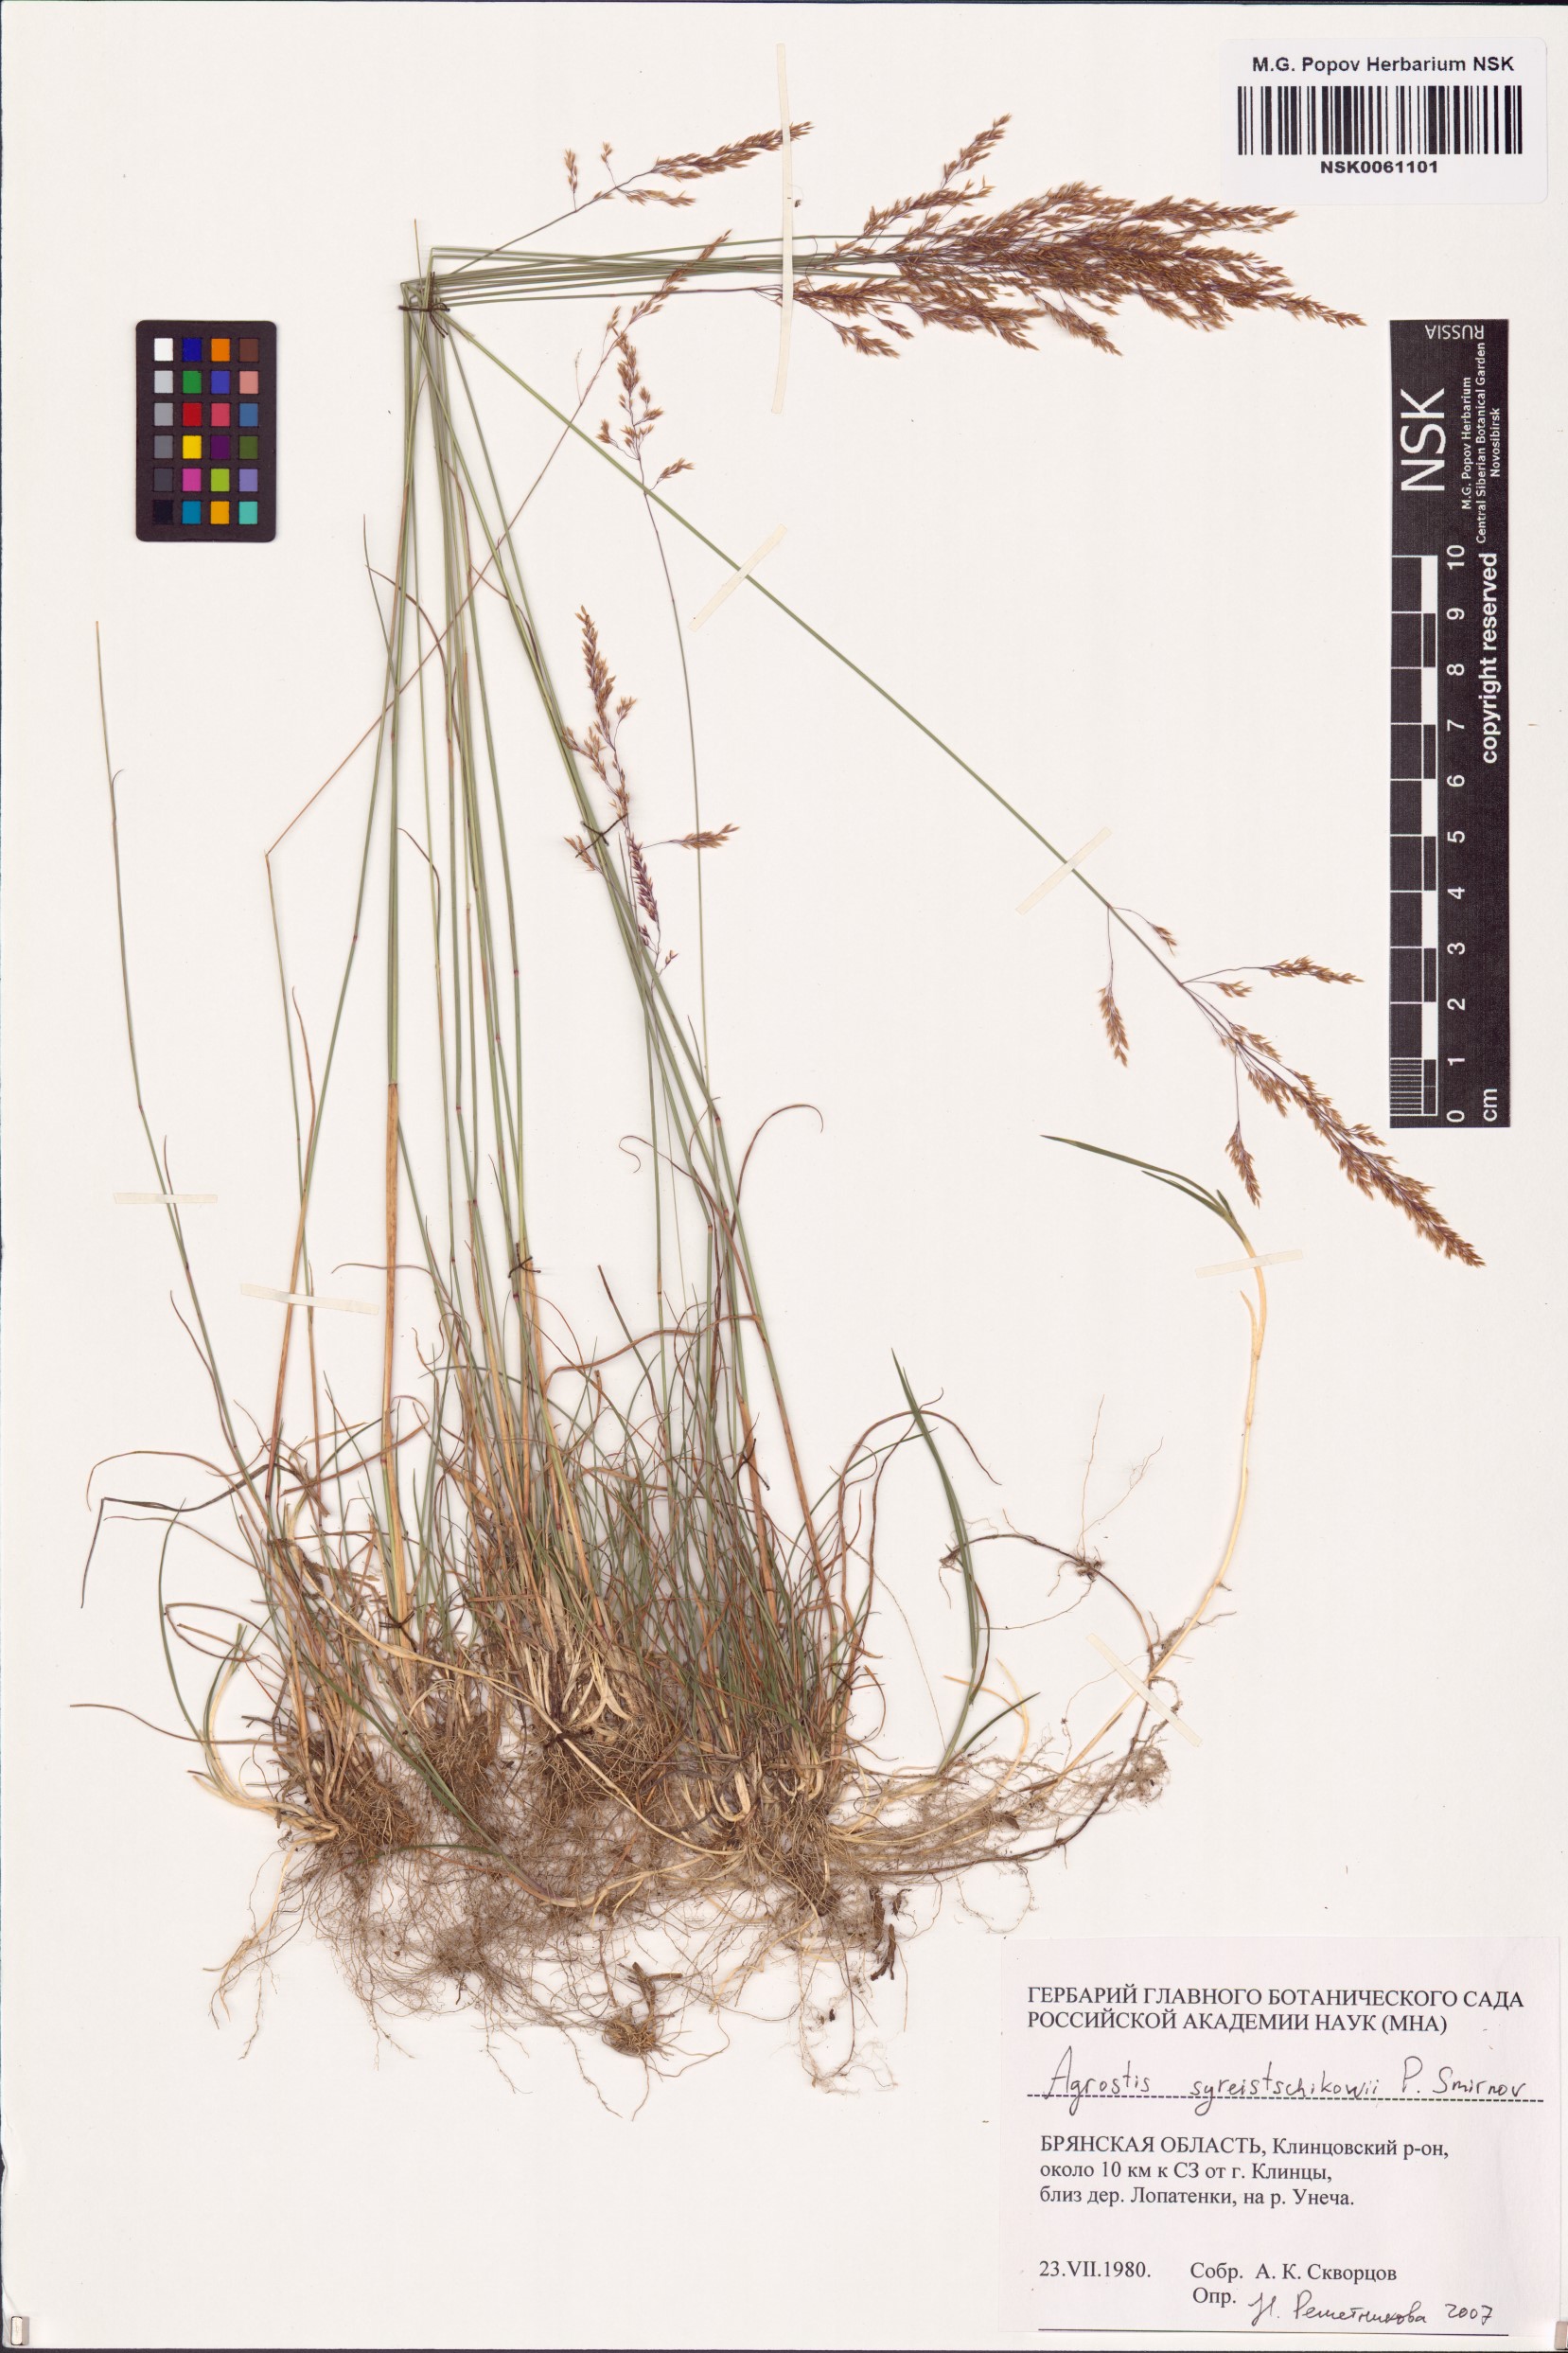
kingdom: Plantae
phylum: Tracheophyta
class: Liliopsida
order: Poales
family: Poaceae
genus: Agrostis
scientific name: Agrostis vinealis
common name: Brown bent
